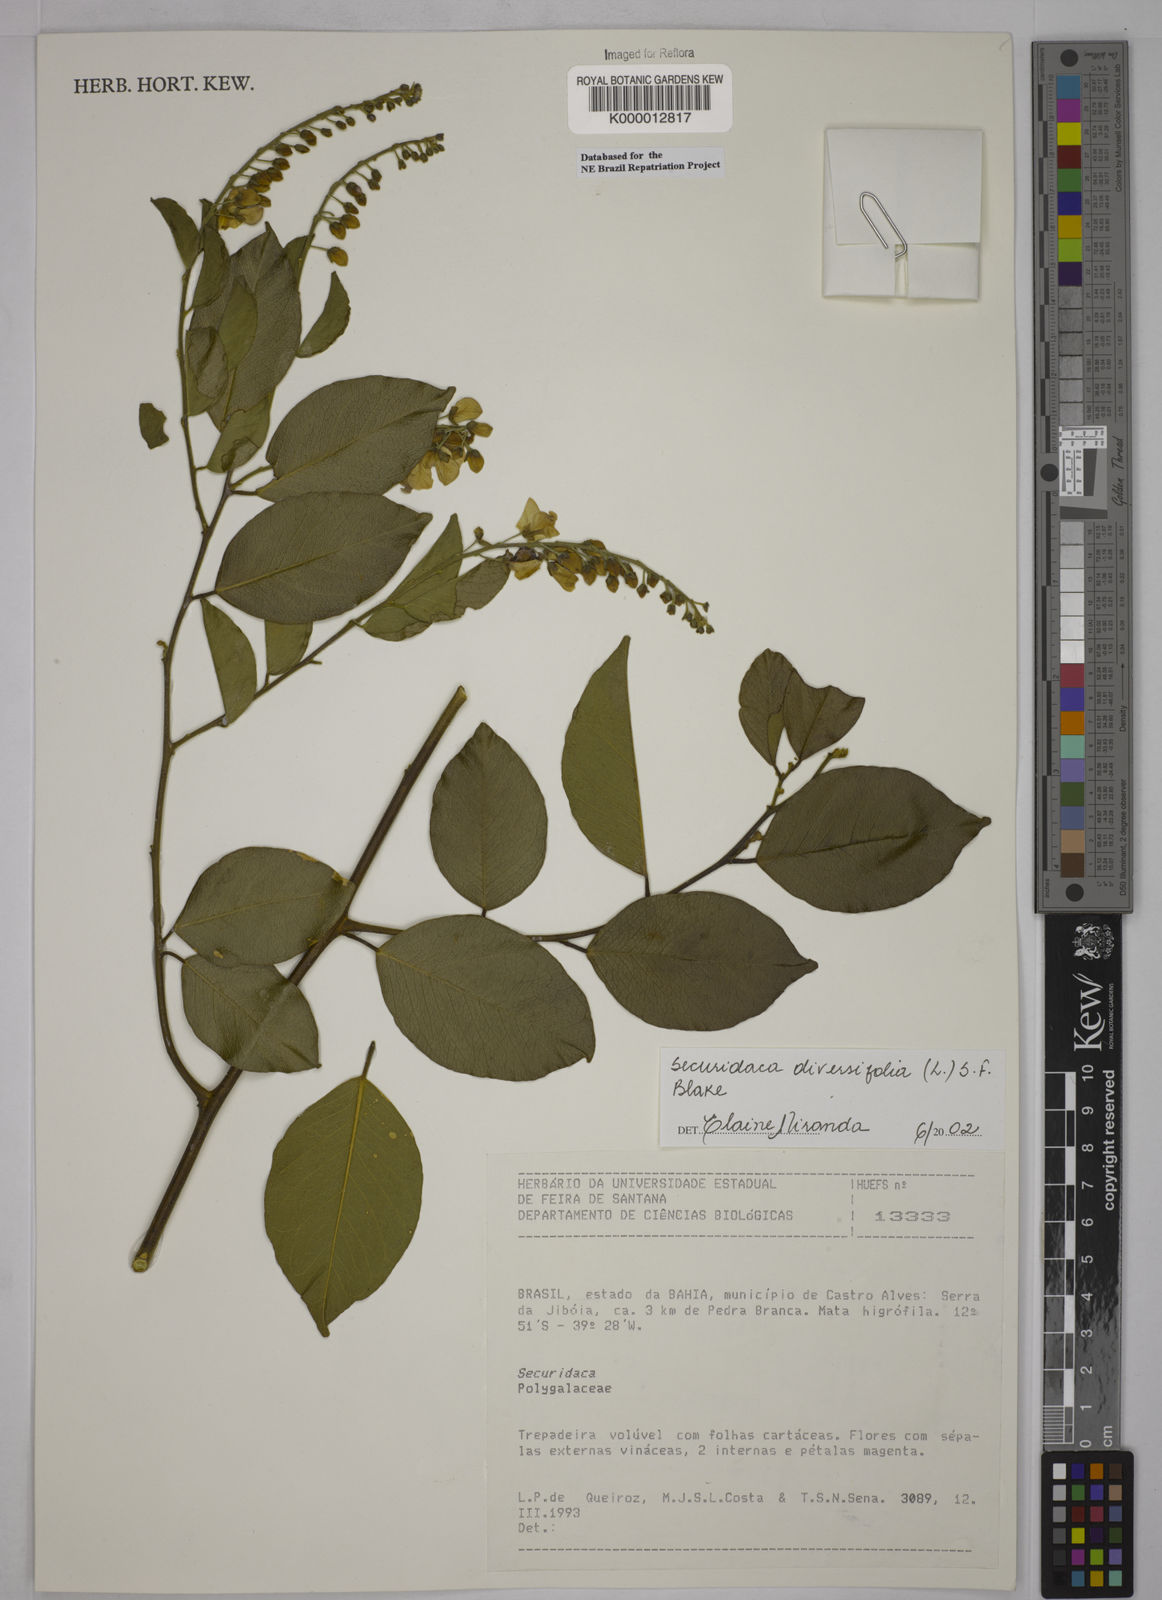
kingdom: Plantae
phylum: Tracheophyta
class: Magnoliopsida
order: Fabales
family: Polygalaceae
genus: Securidaca
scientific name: Securidaca diversifolia
